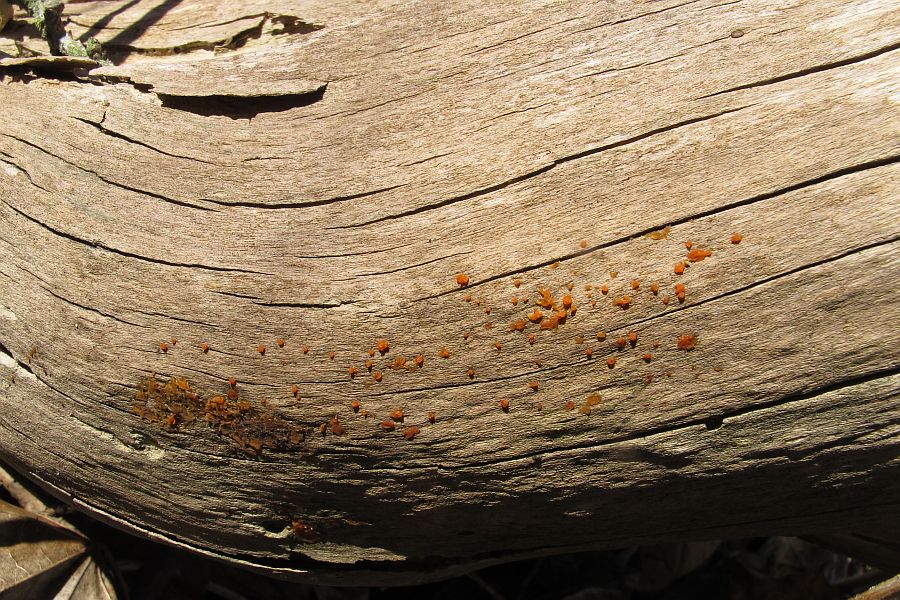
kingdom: Fungi
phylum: Basidiomycota
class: Dacrymycetes
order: Dacrymycetales
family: Dacrymycetaceae
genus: Dacrymyces
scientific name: Dacrymyces stillatus
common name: almindelig tåresvamp
